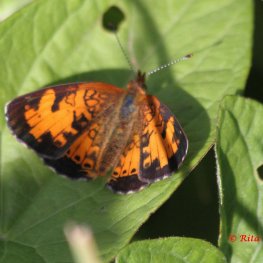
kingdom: Animalia
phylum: Arthropoda
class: Insecta
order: Lepidoptera
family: Nymphalidae
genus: Phyciodes
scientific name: Phyciodes tharos
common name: Northern Crescent
